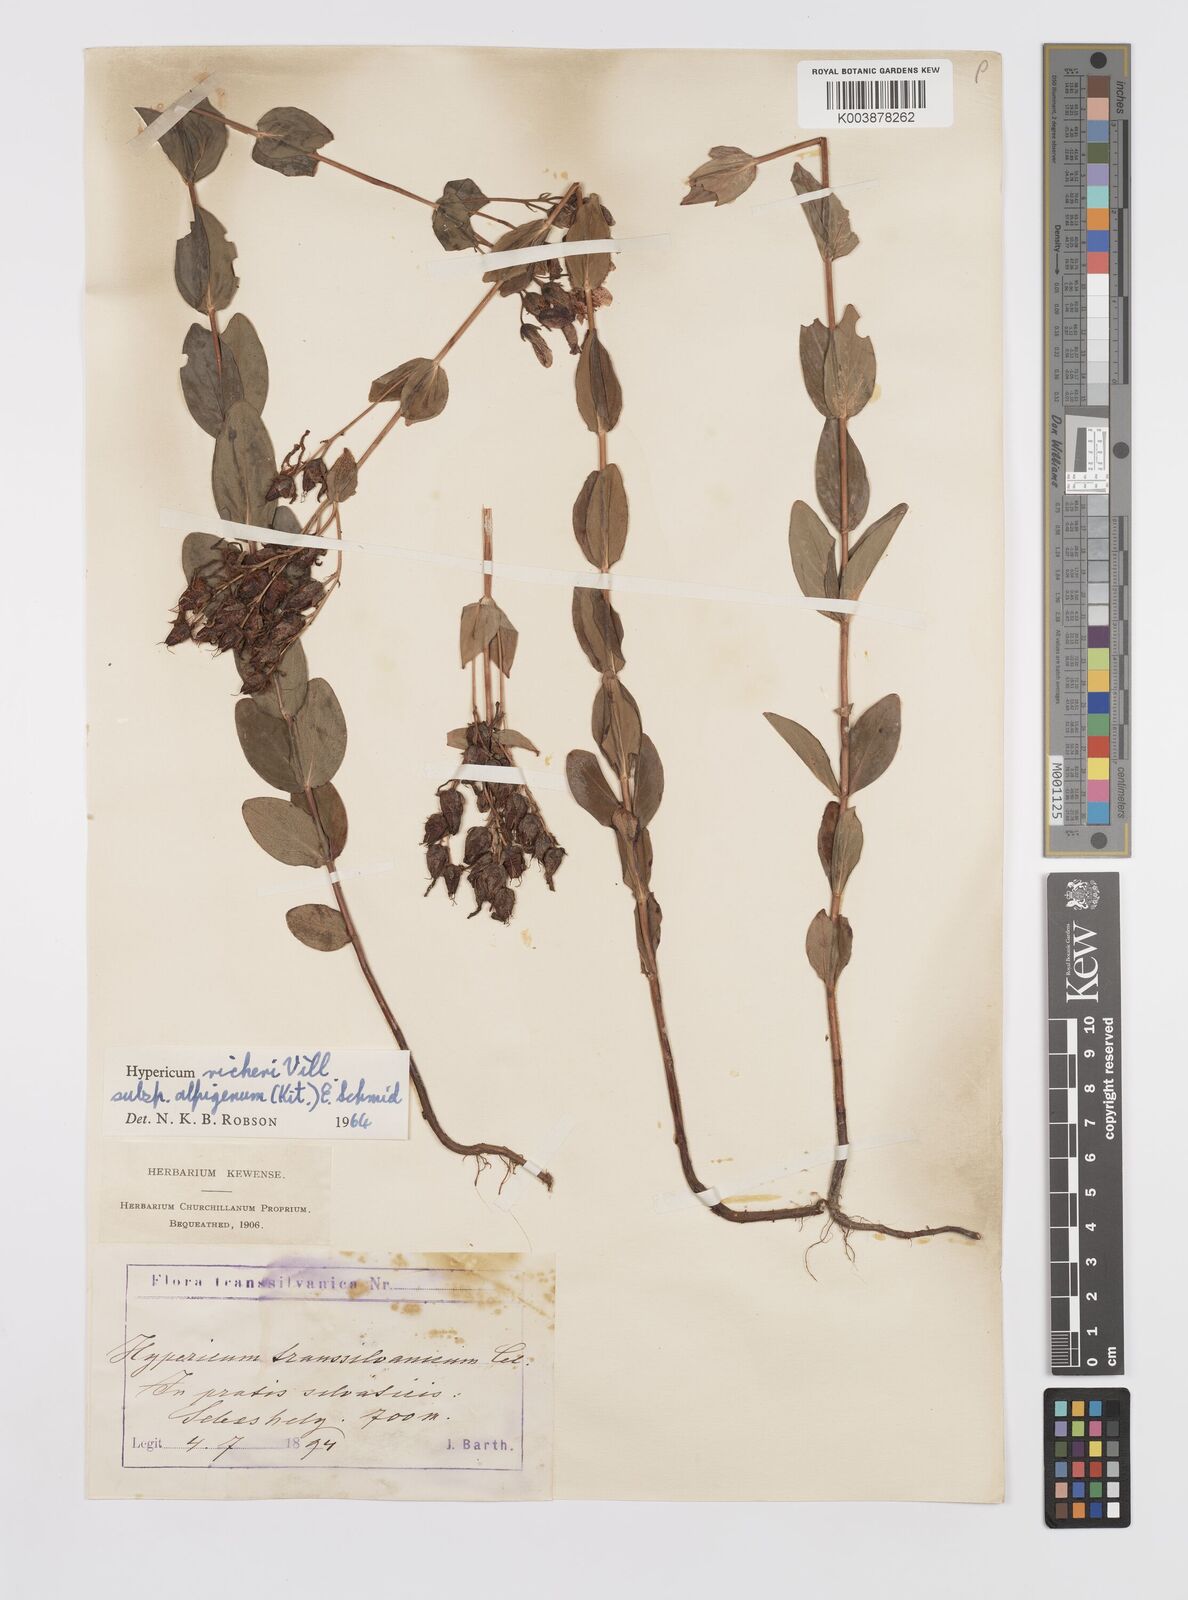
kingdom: Plantae
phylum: Tracheophyta
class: Magnoliopsida
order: Malpighiales
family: Hypericaceae
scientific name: Hypericaceae
